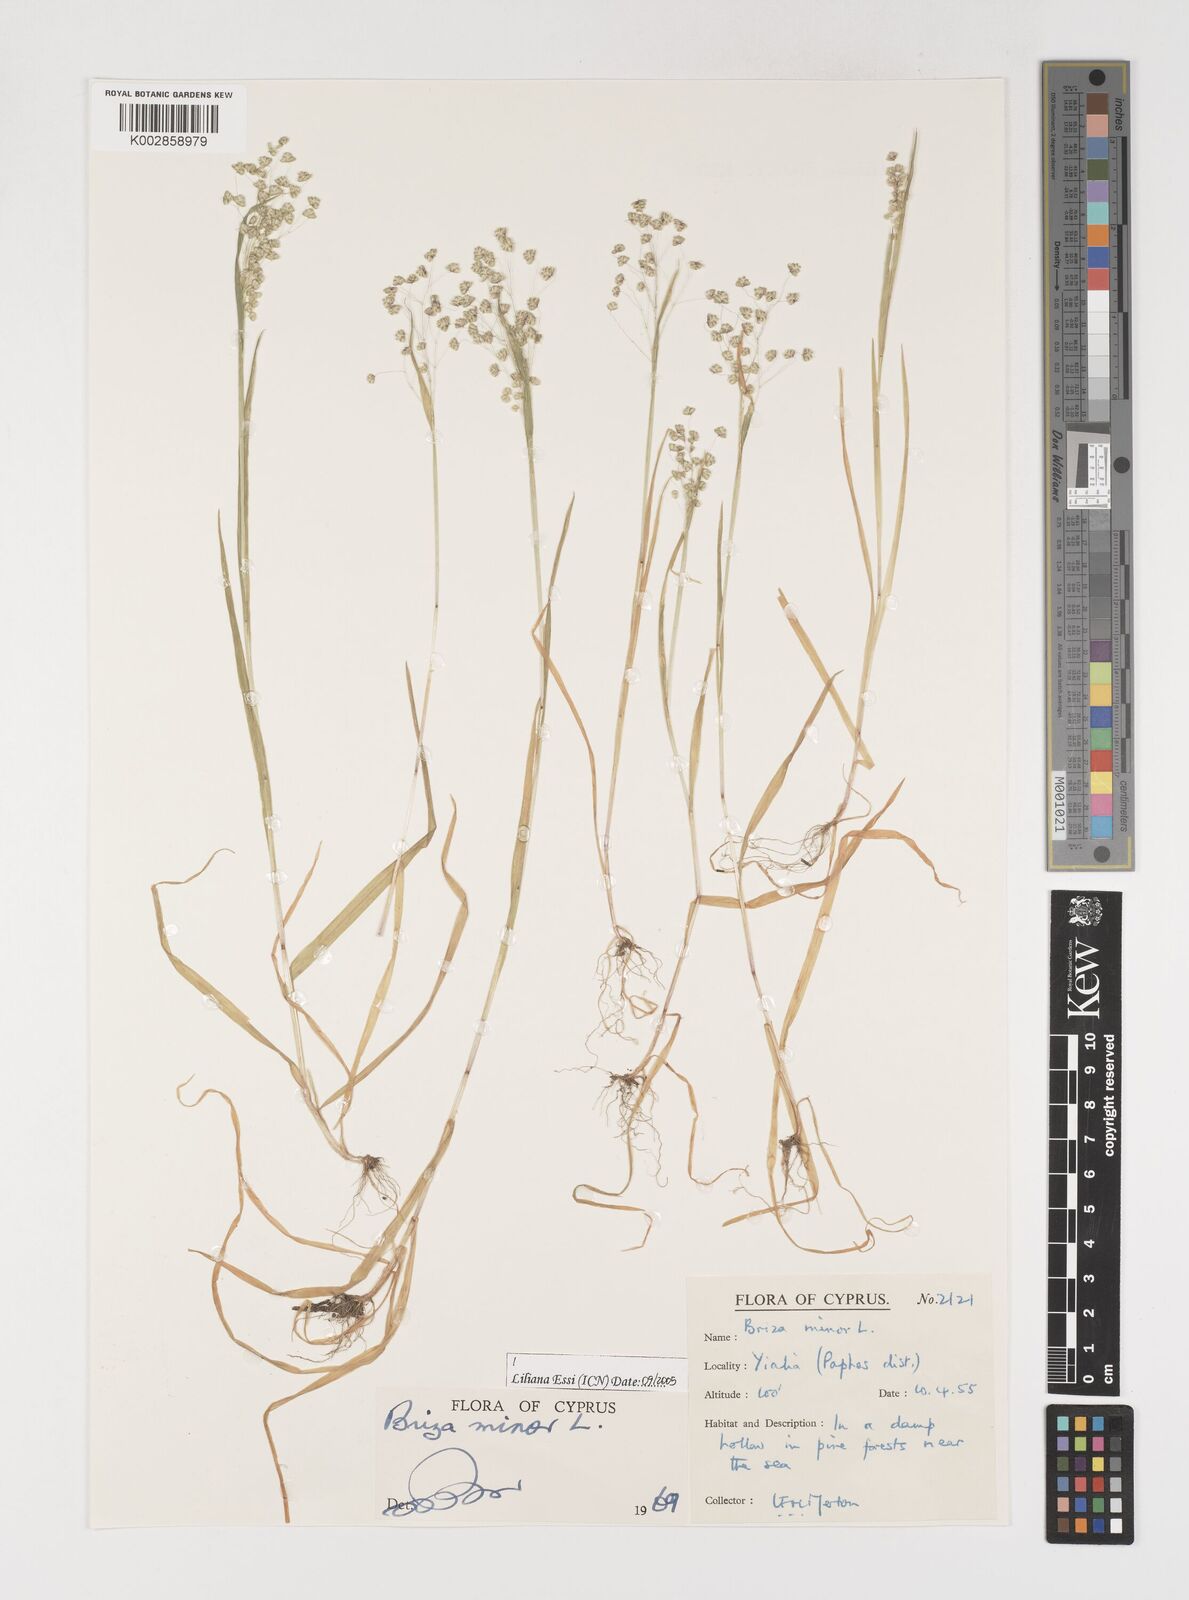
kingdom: Plantae
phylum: Tracheophyta
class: Liliopsida
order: Poales
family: Poaceae
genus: Briza
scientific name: Briza minor
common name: Lesser quaking-grass
